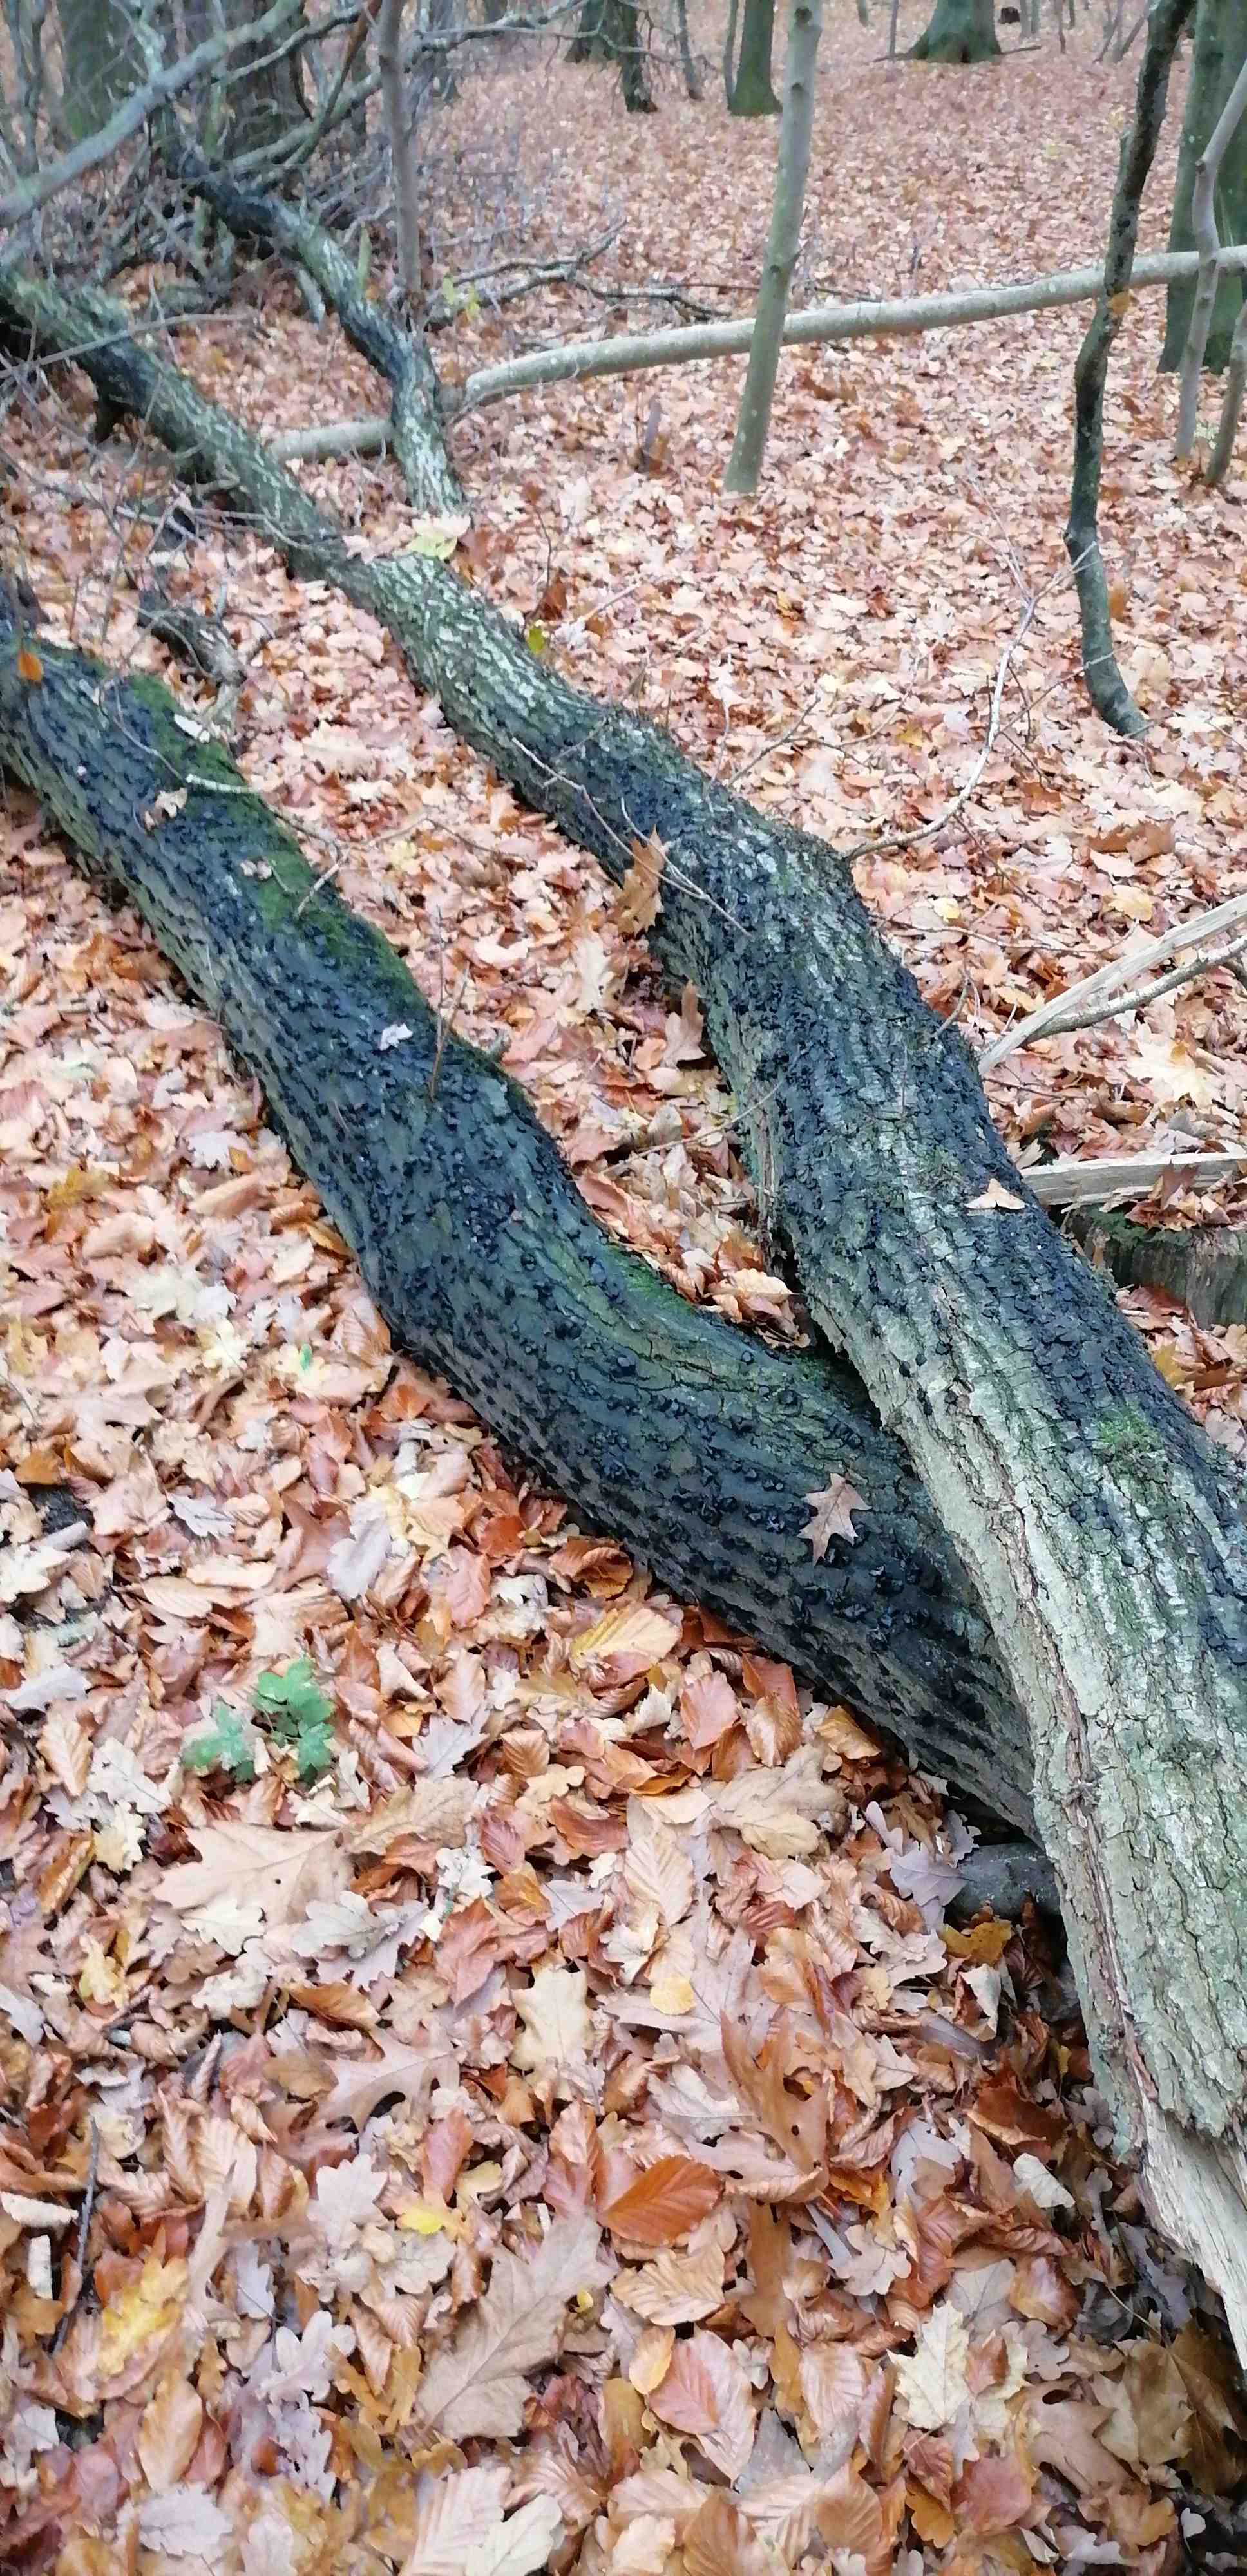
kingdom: Fungi
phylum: Ascomycota
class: Leotiomycetes
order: Phacidiales
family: Phacidiaceae
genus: Bulgaria
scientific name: Bulgaria inquinans
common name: afsmittende topsvamp
